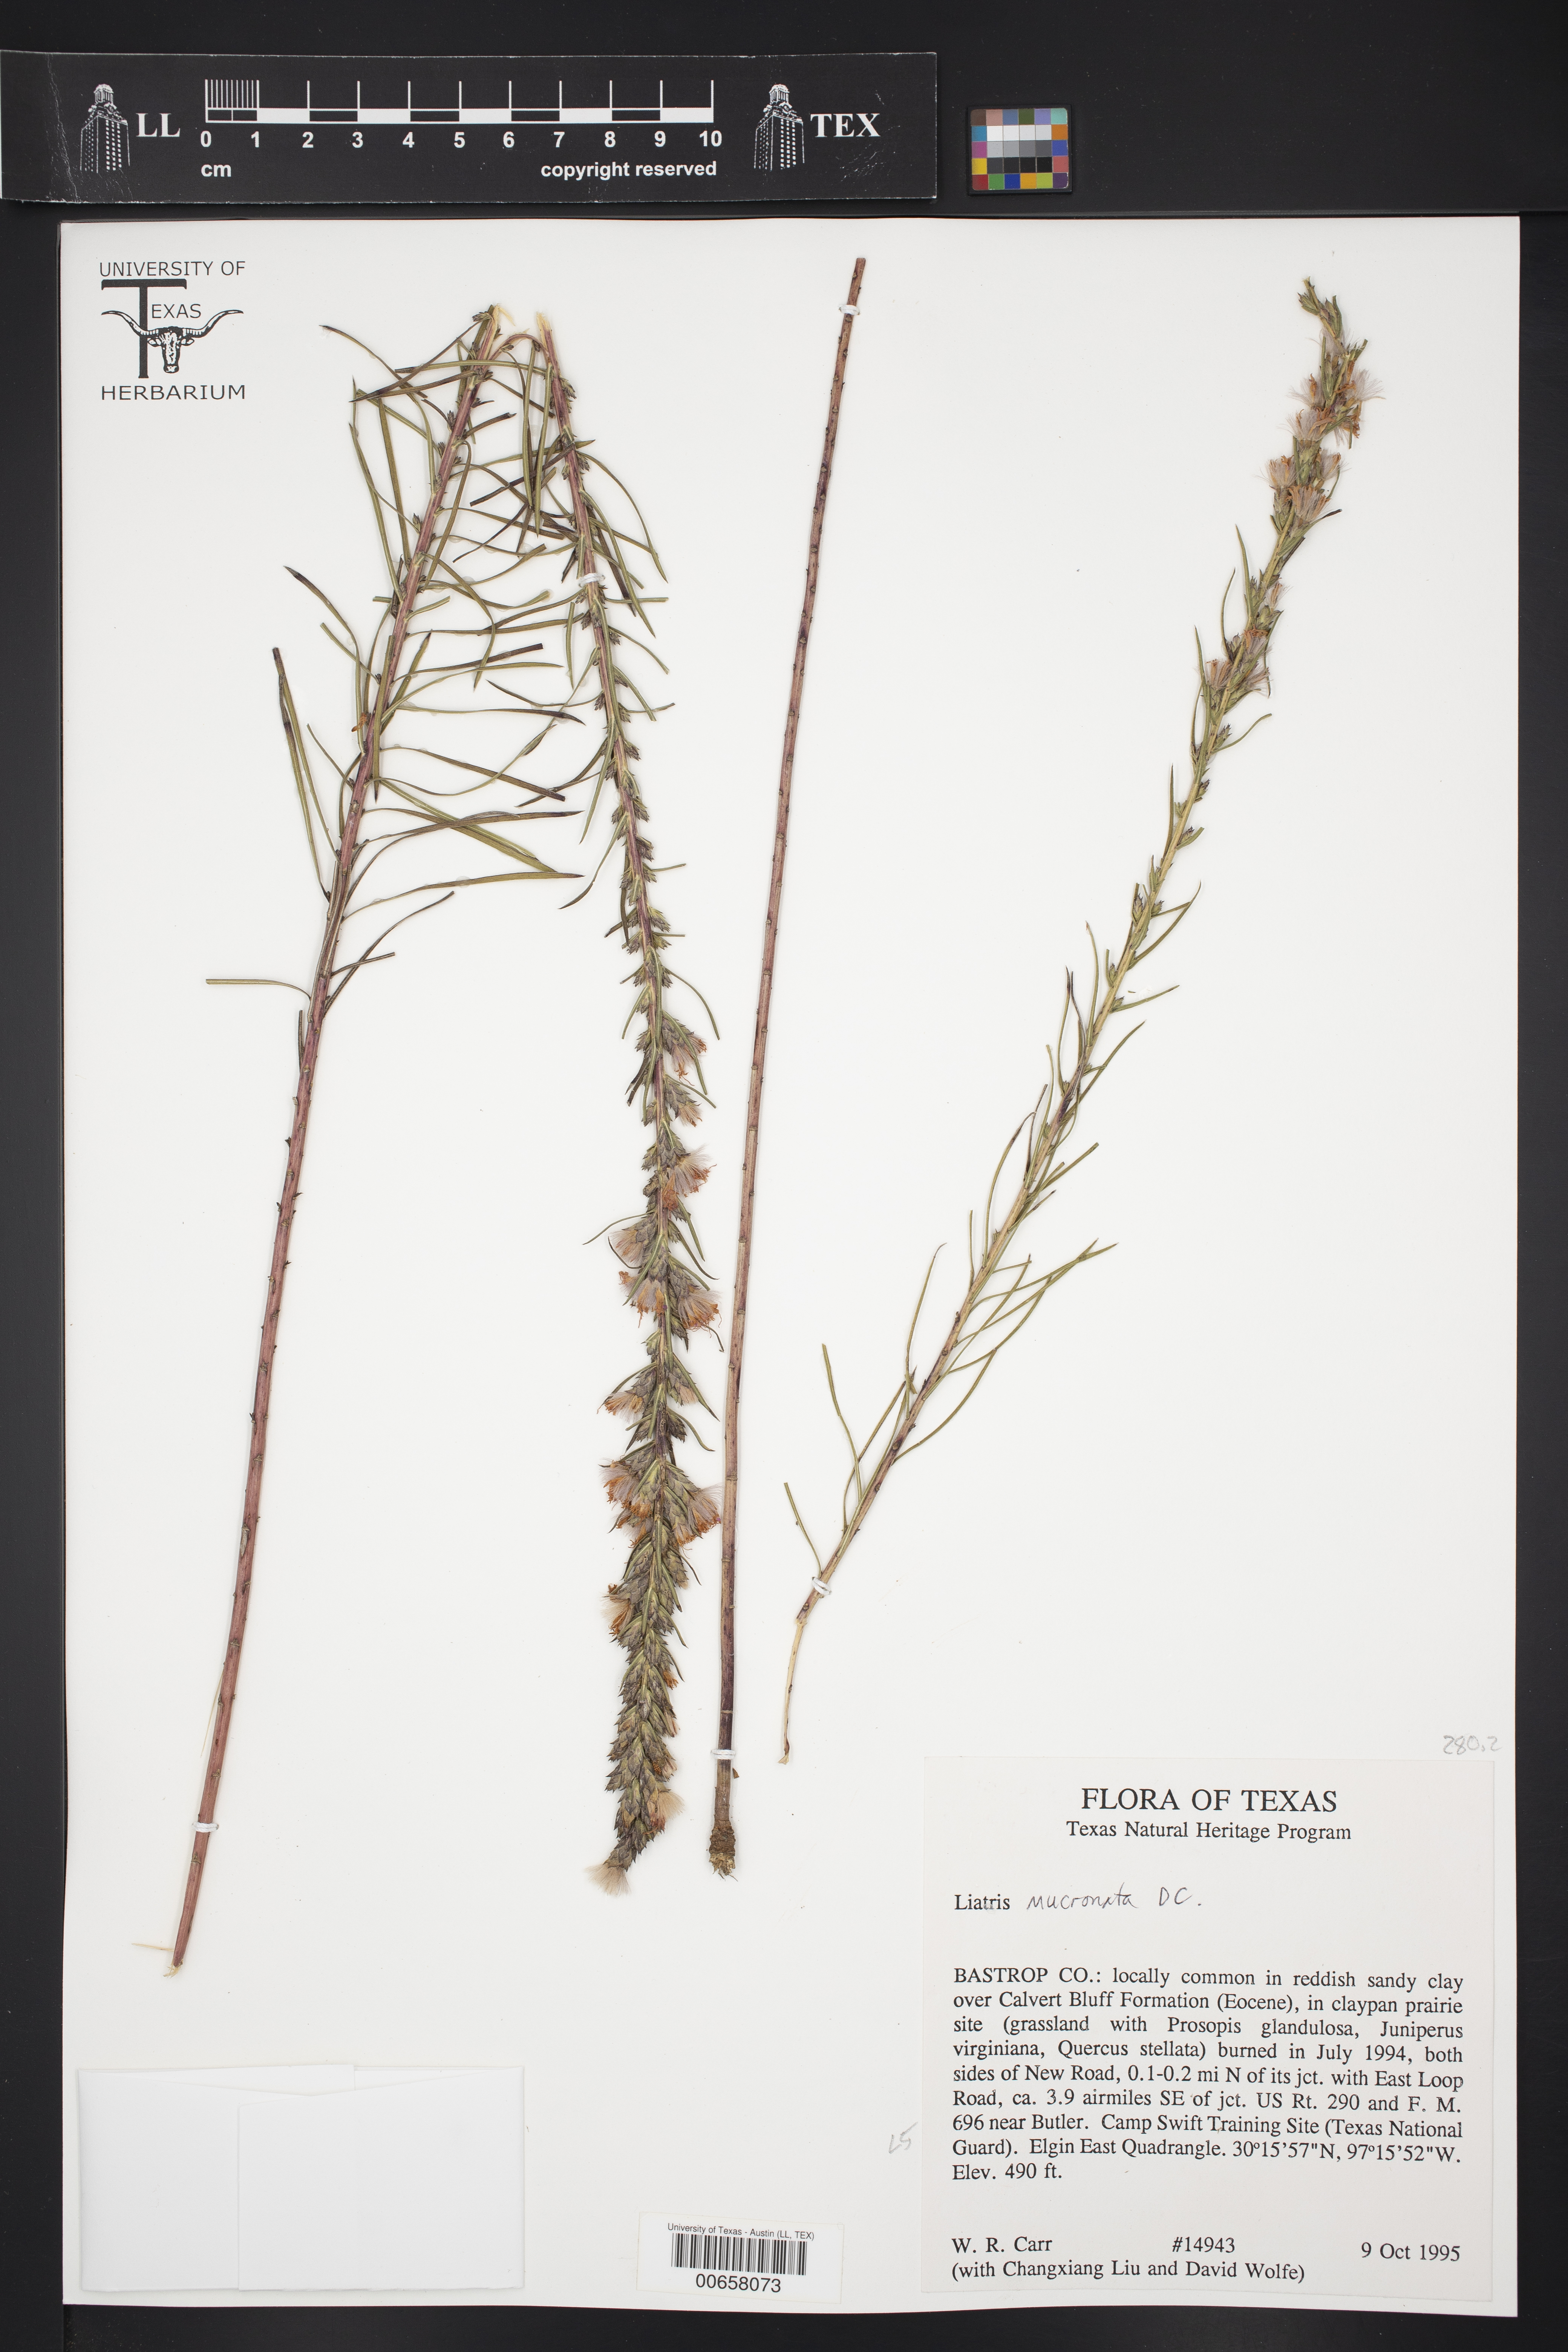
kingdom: Plantae
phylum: Tracheophyta
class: Magnoliopsida
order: Asterales
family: Asteraceae
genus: Liatris
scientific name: Liatris mucronata
